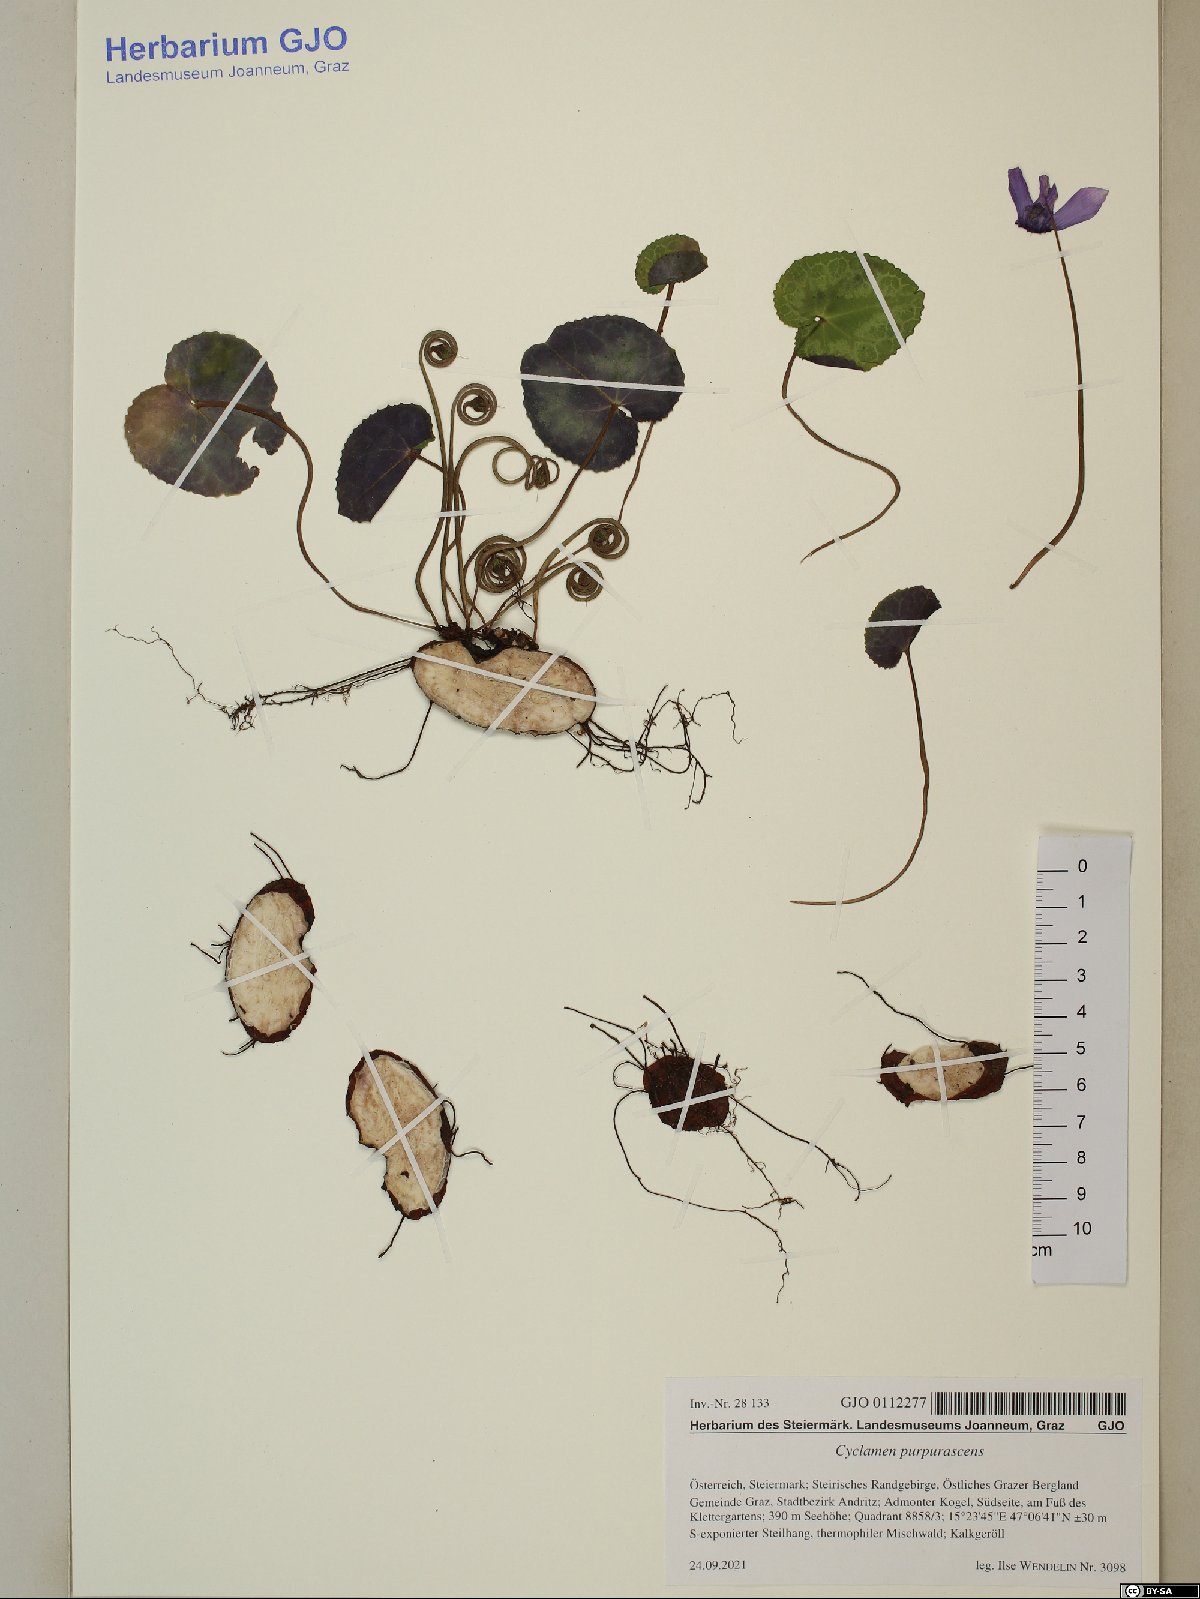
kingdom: Plantae
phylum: Tracheophyta
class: Magnoliopsida
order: Ericales
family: Primulaceae
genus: Cyclamen
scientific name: Cyclamen purpurascens
